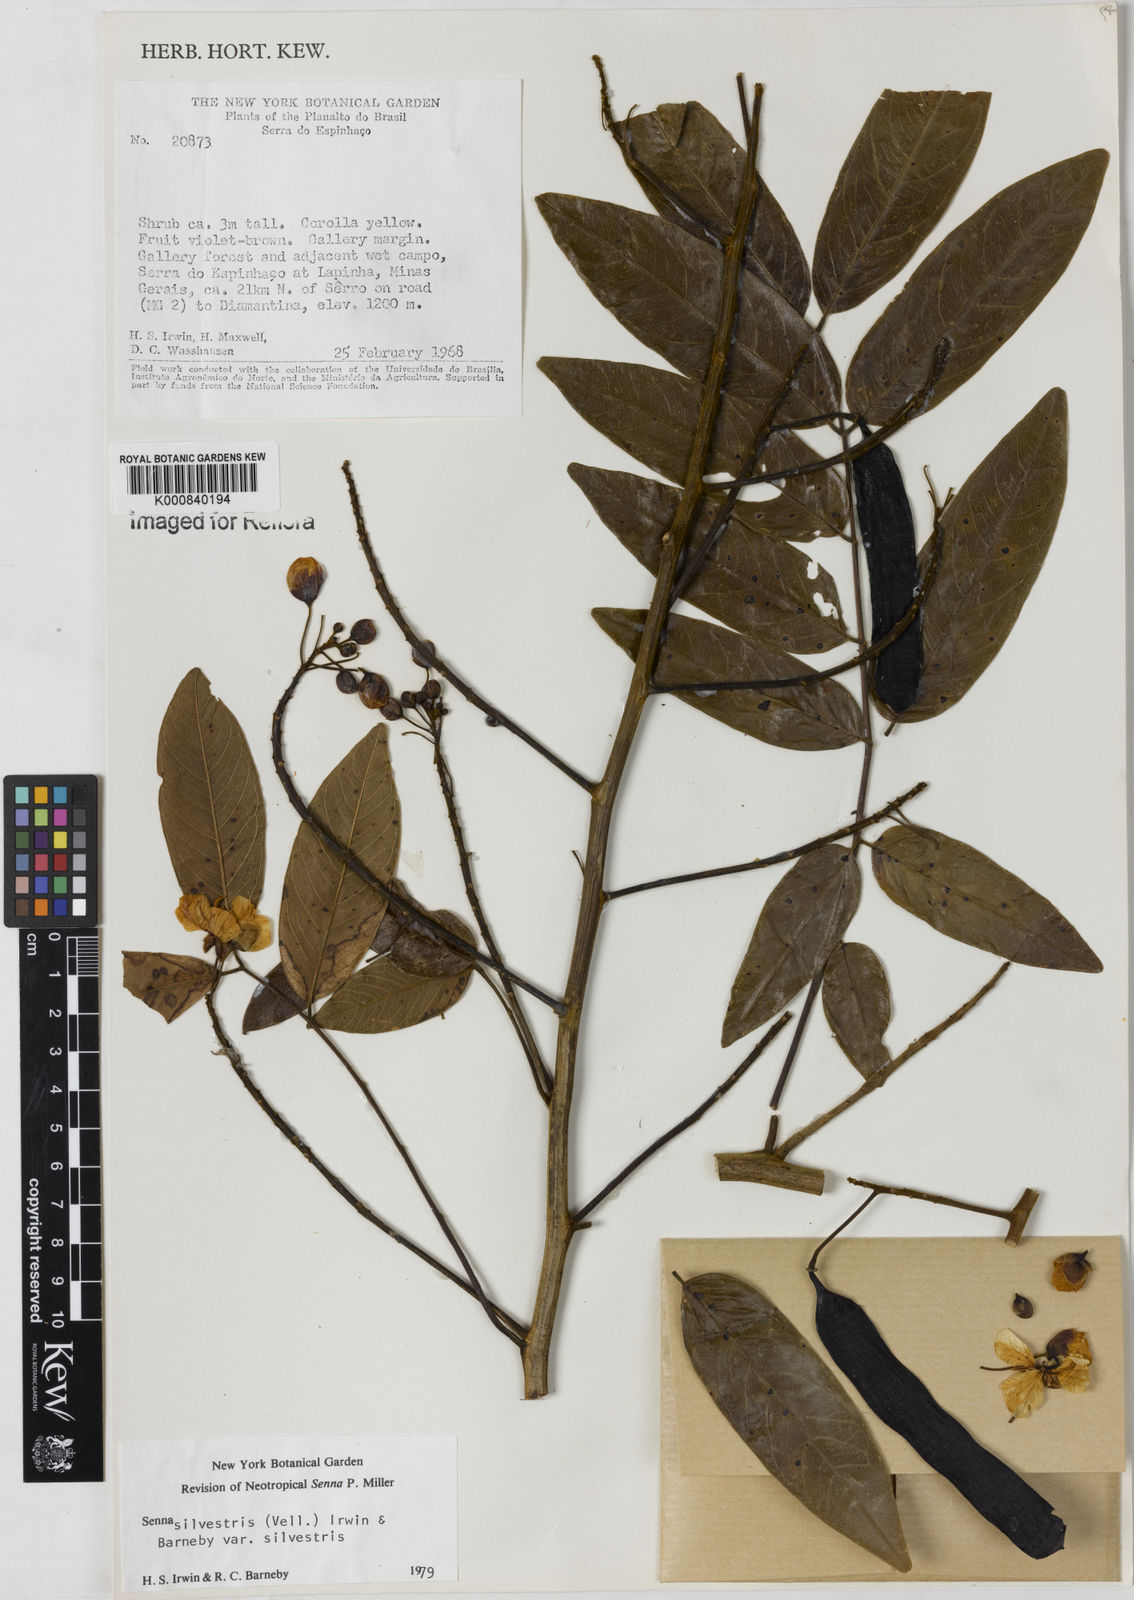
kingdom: Plantae
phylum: Tracheophyta
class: Magnoliopsida
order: Fabales
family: Fabaceae
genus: Senna
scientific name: Senna silvestris
